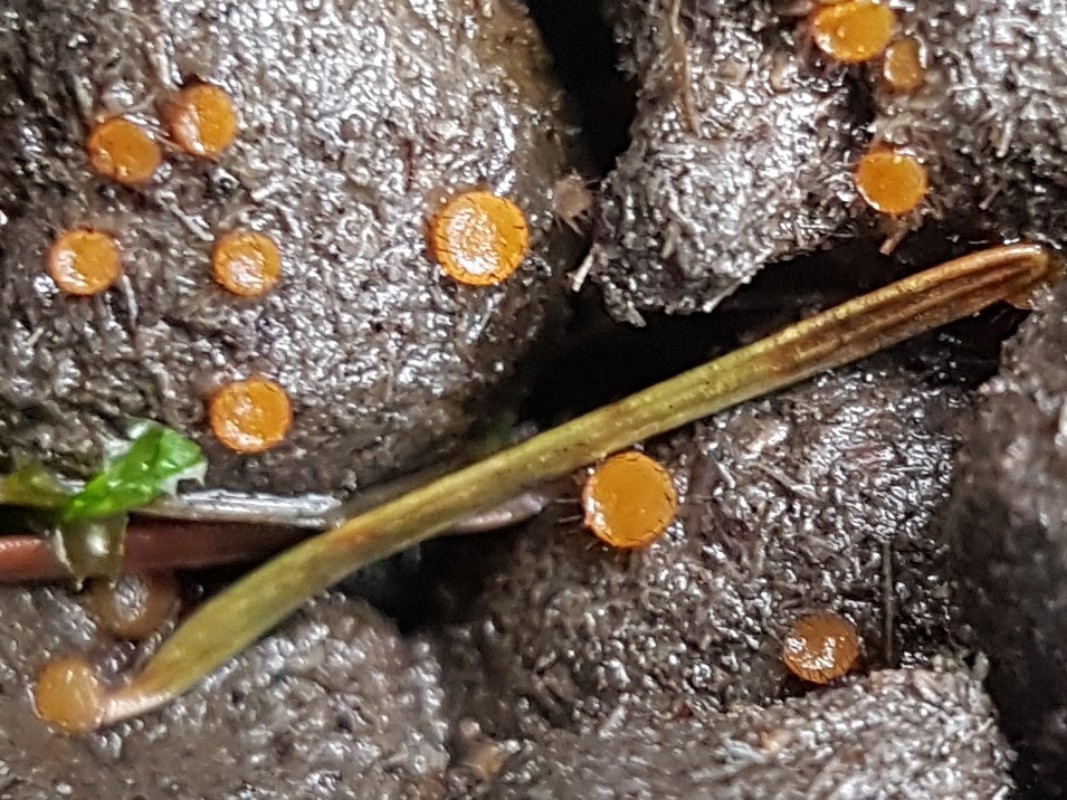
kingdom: Fungi
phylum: Ascomycota
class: Pezizomycetes
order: Pezizales
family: Pyronemataceae
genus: Cheilymenia
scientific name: Cheilymenia
